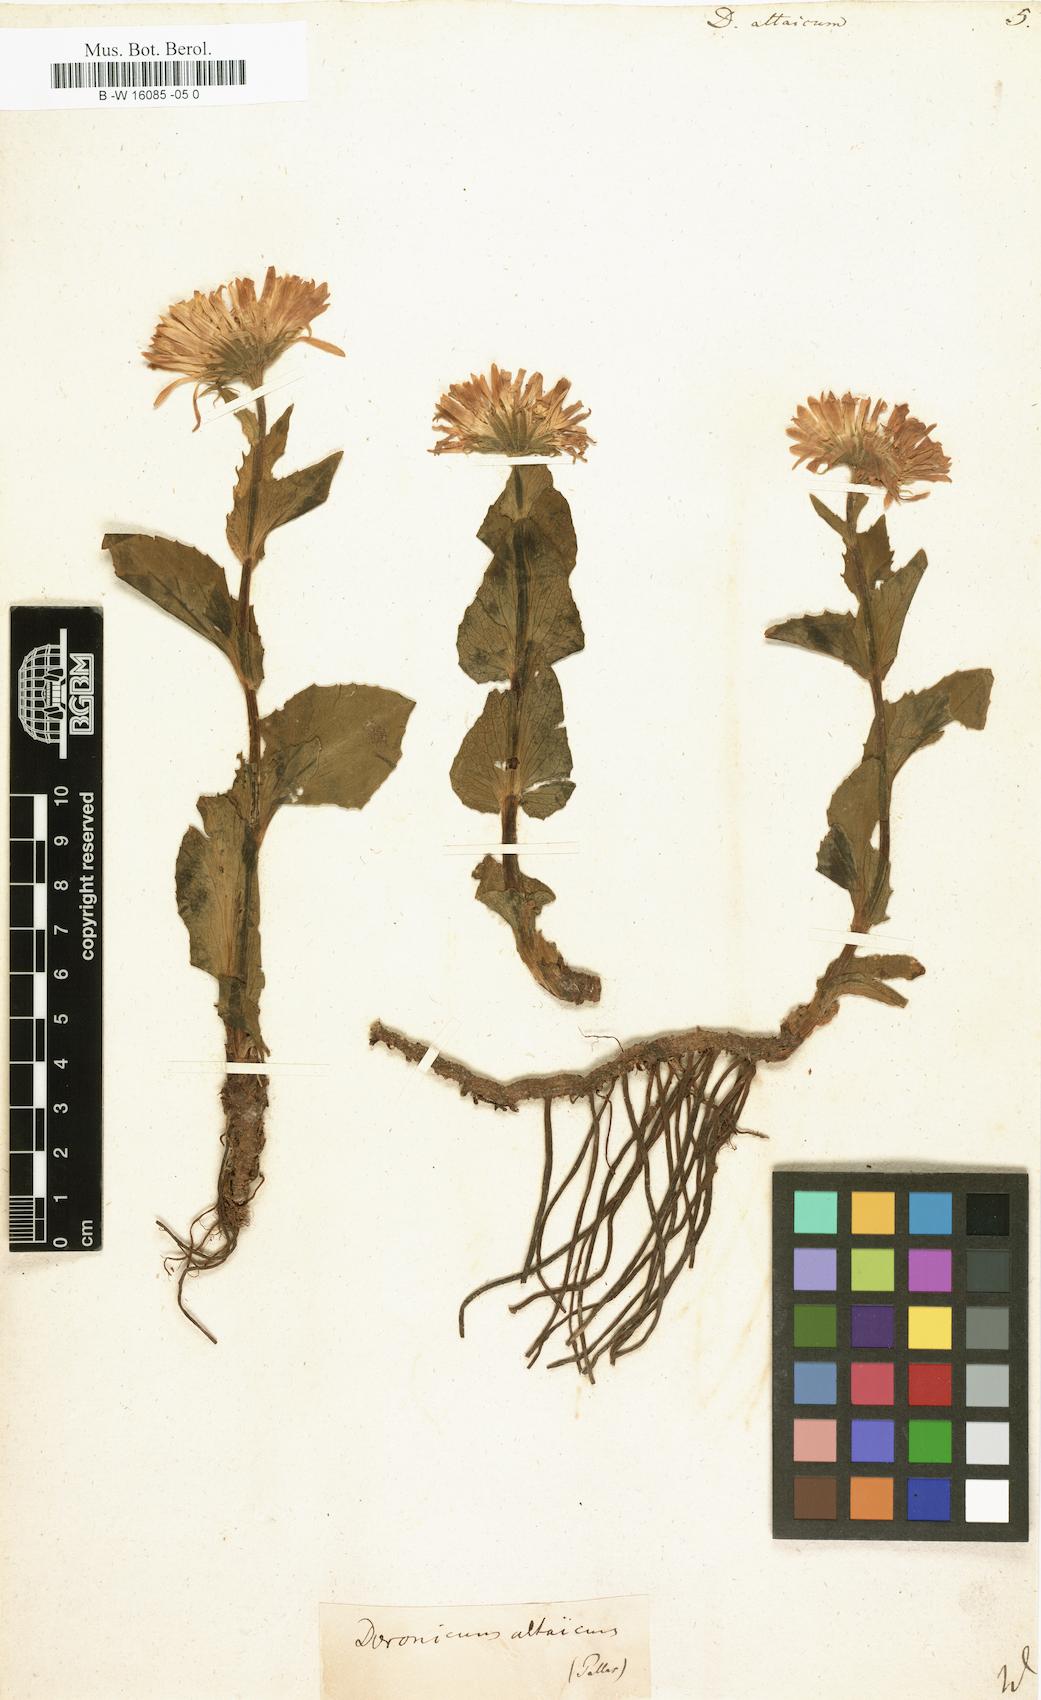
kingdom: Plantae
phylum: Tracheophyta
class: Magnoliopsida
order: Asterales
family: Asteraceae
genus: Doronicum
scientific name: Doronicum altaicum
